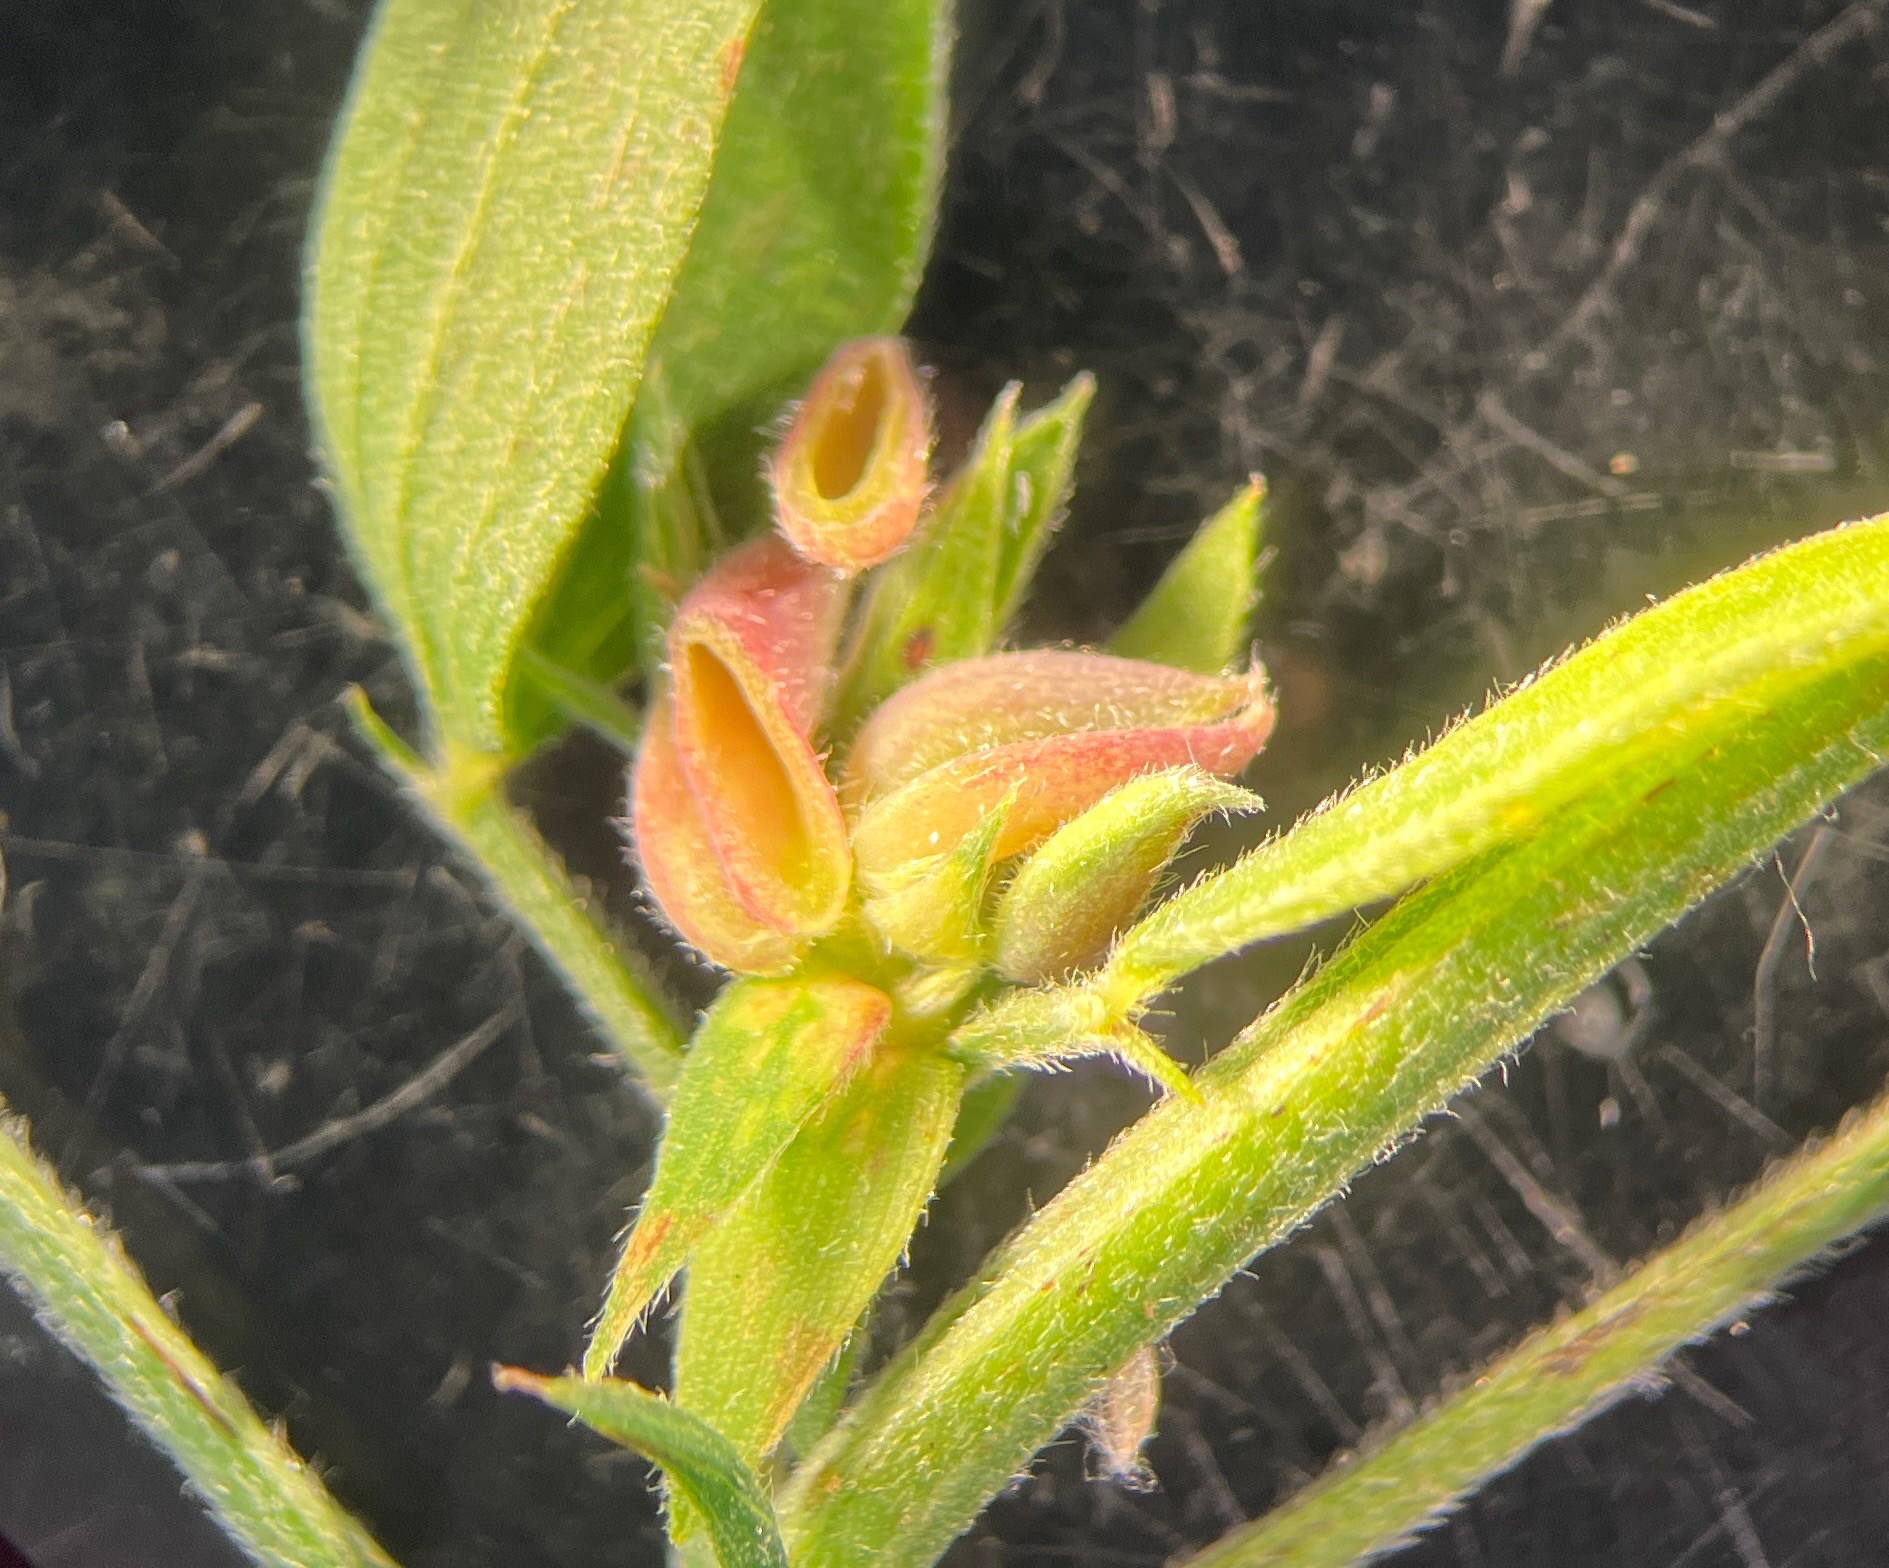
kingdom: Animalia
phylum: Arthropoda
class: Insecta
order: Diptera
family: Cecidomyiidae
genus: Dasineura
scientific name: Dasineura lathyri
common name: Fladbælgbladgalmyg
